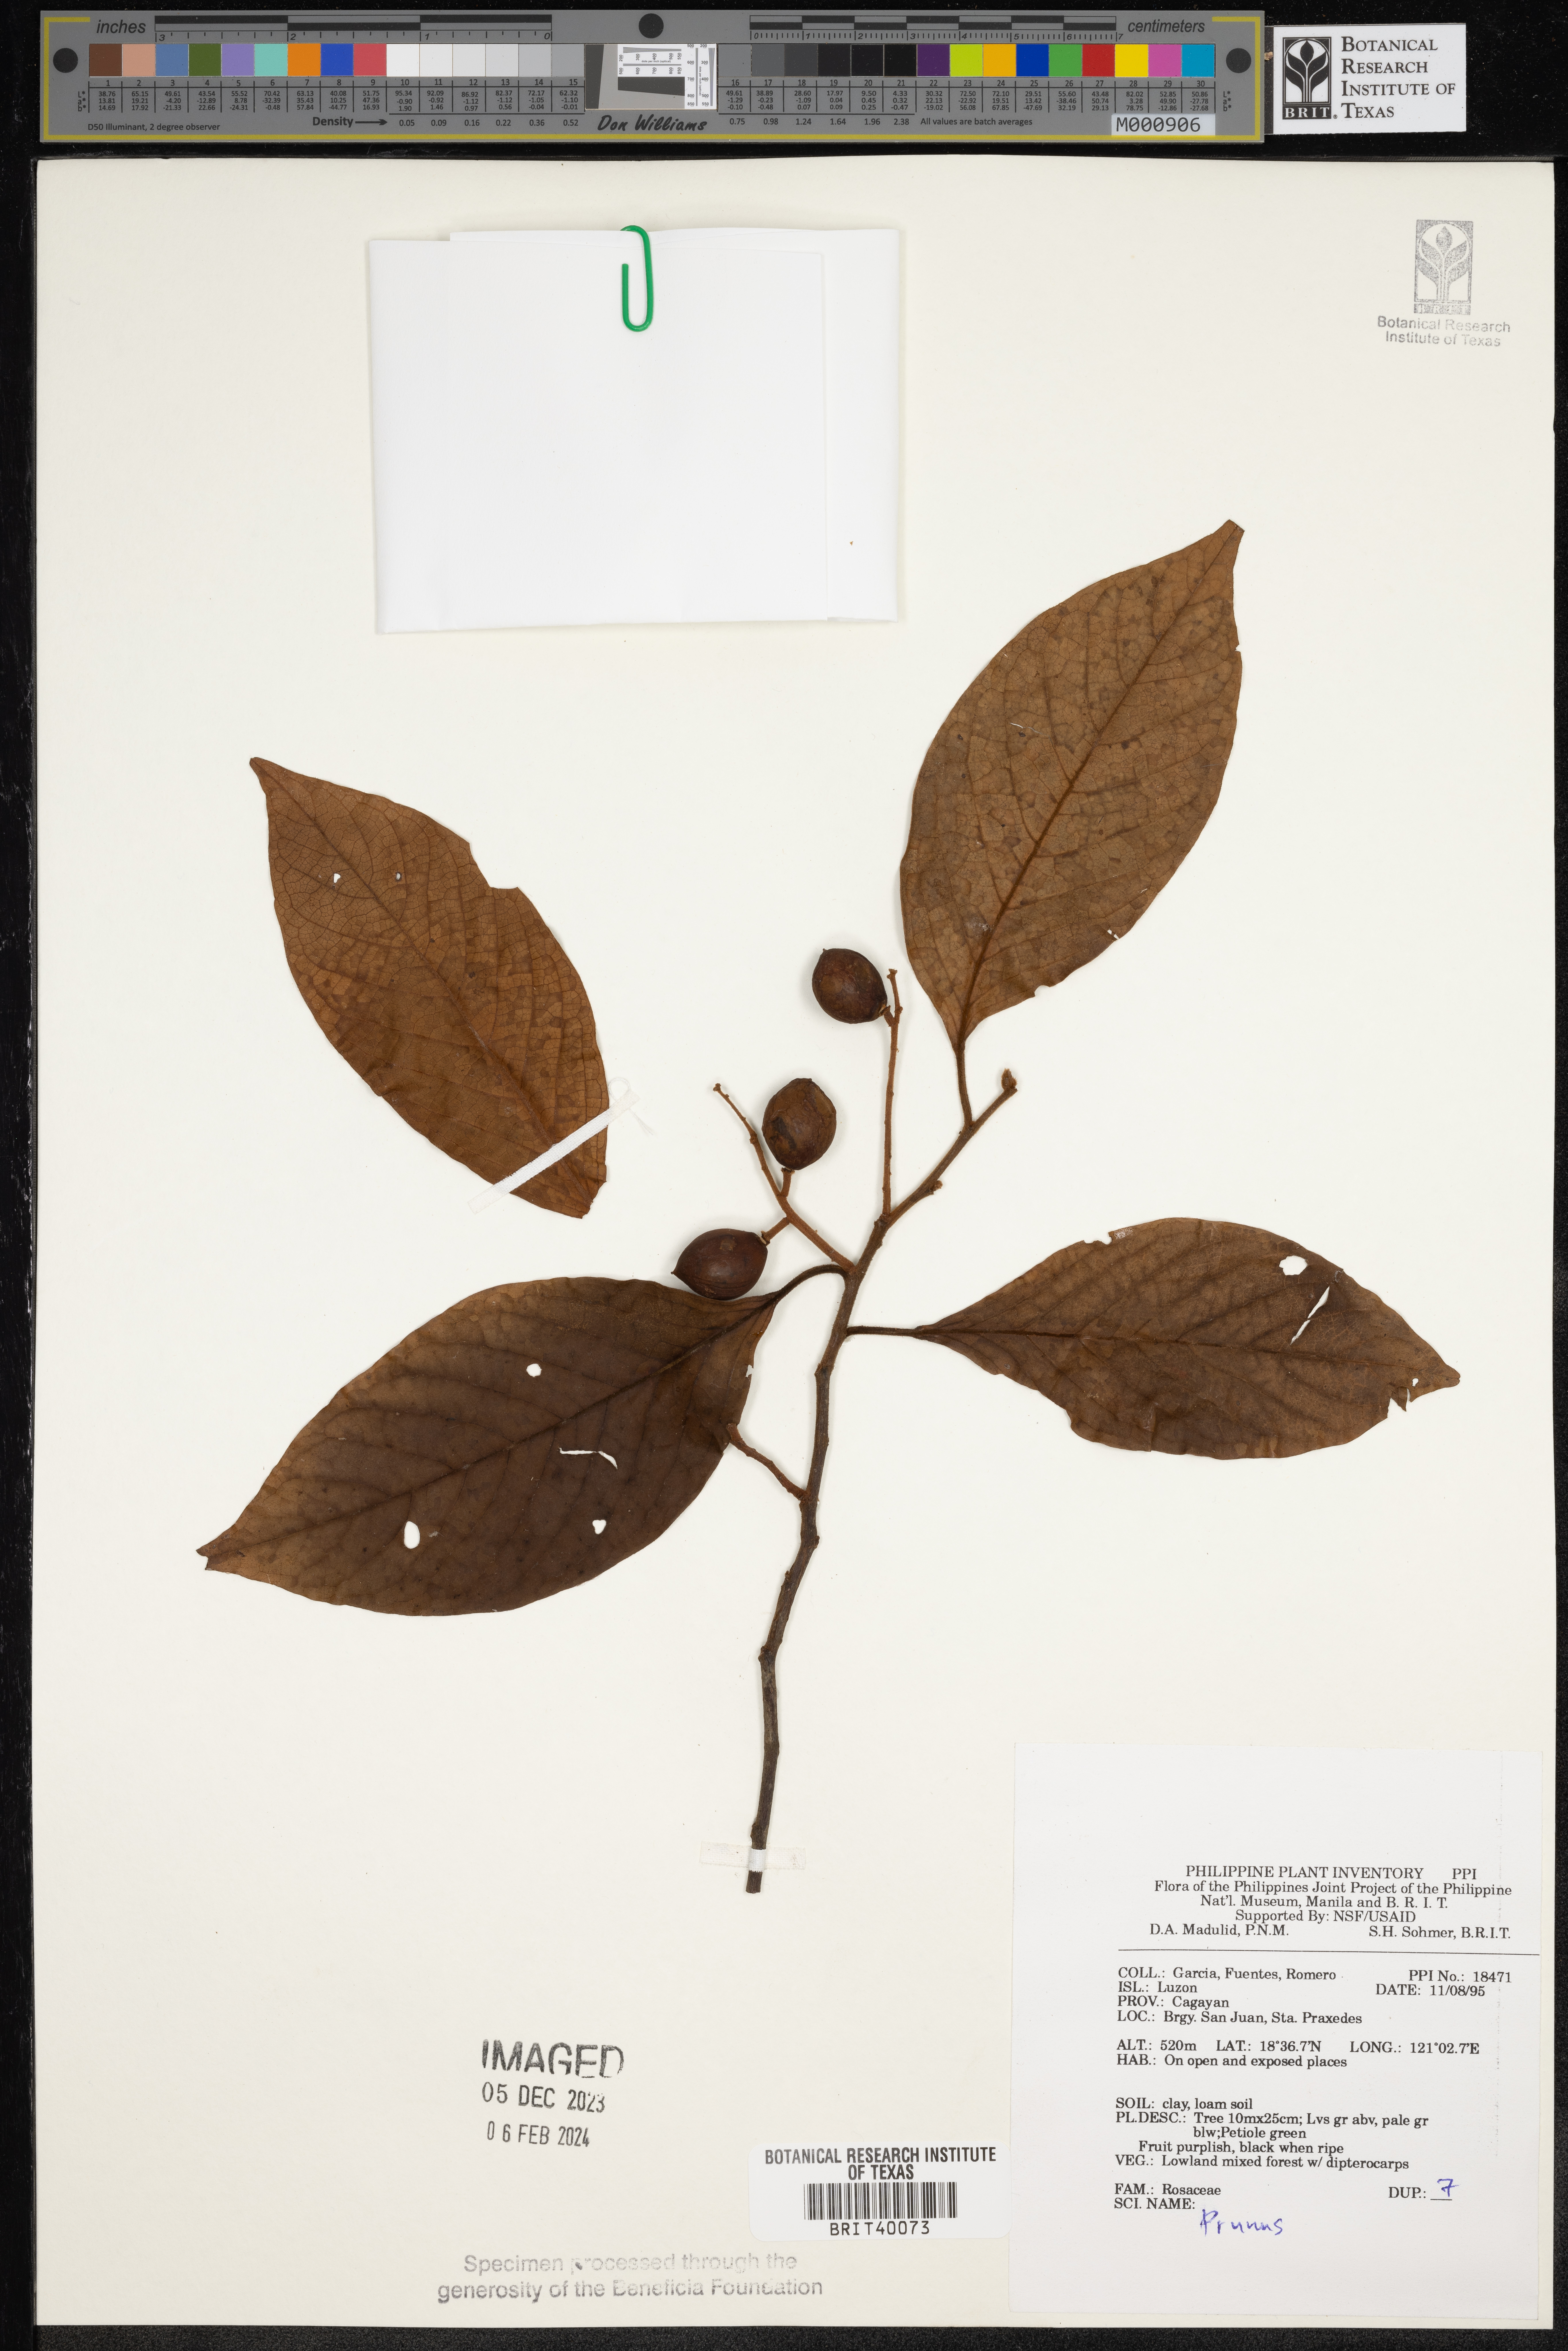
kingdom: Plantae
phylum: Tracheophyta
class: Magnoliopsida
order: Rosales
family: Rosaceae
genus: Prunus
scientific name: Prunus
